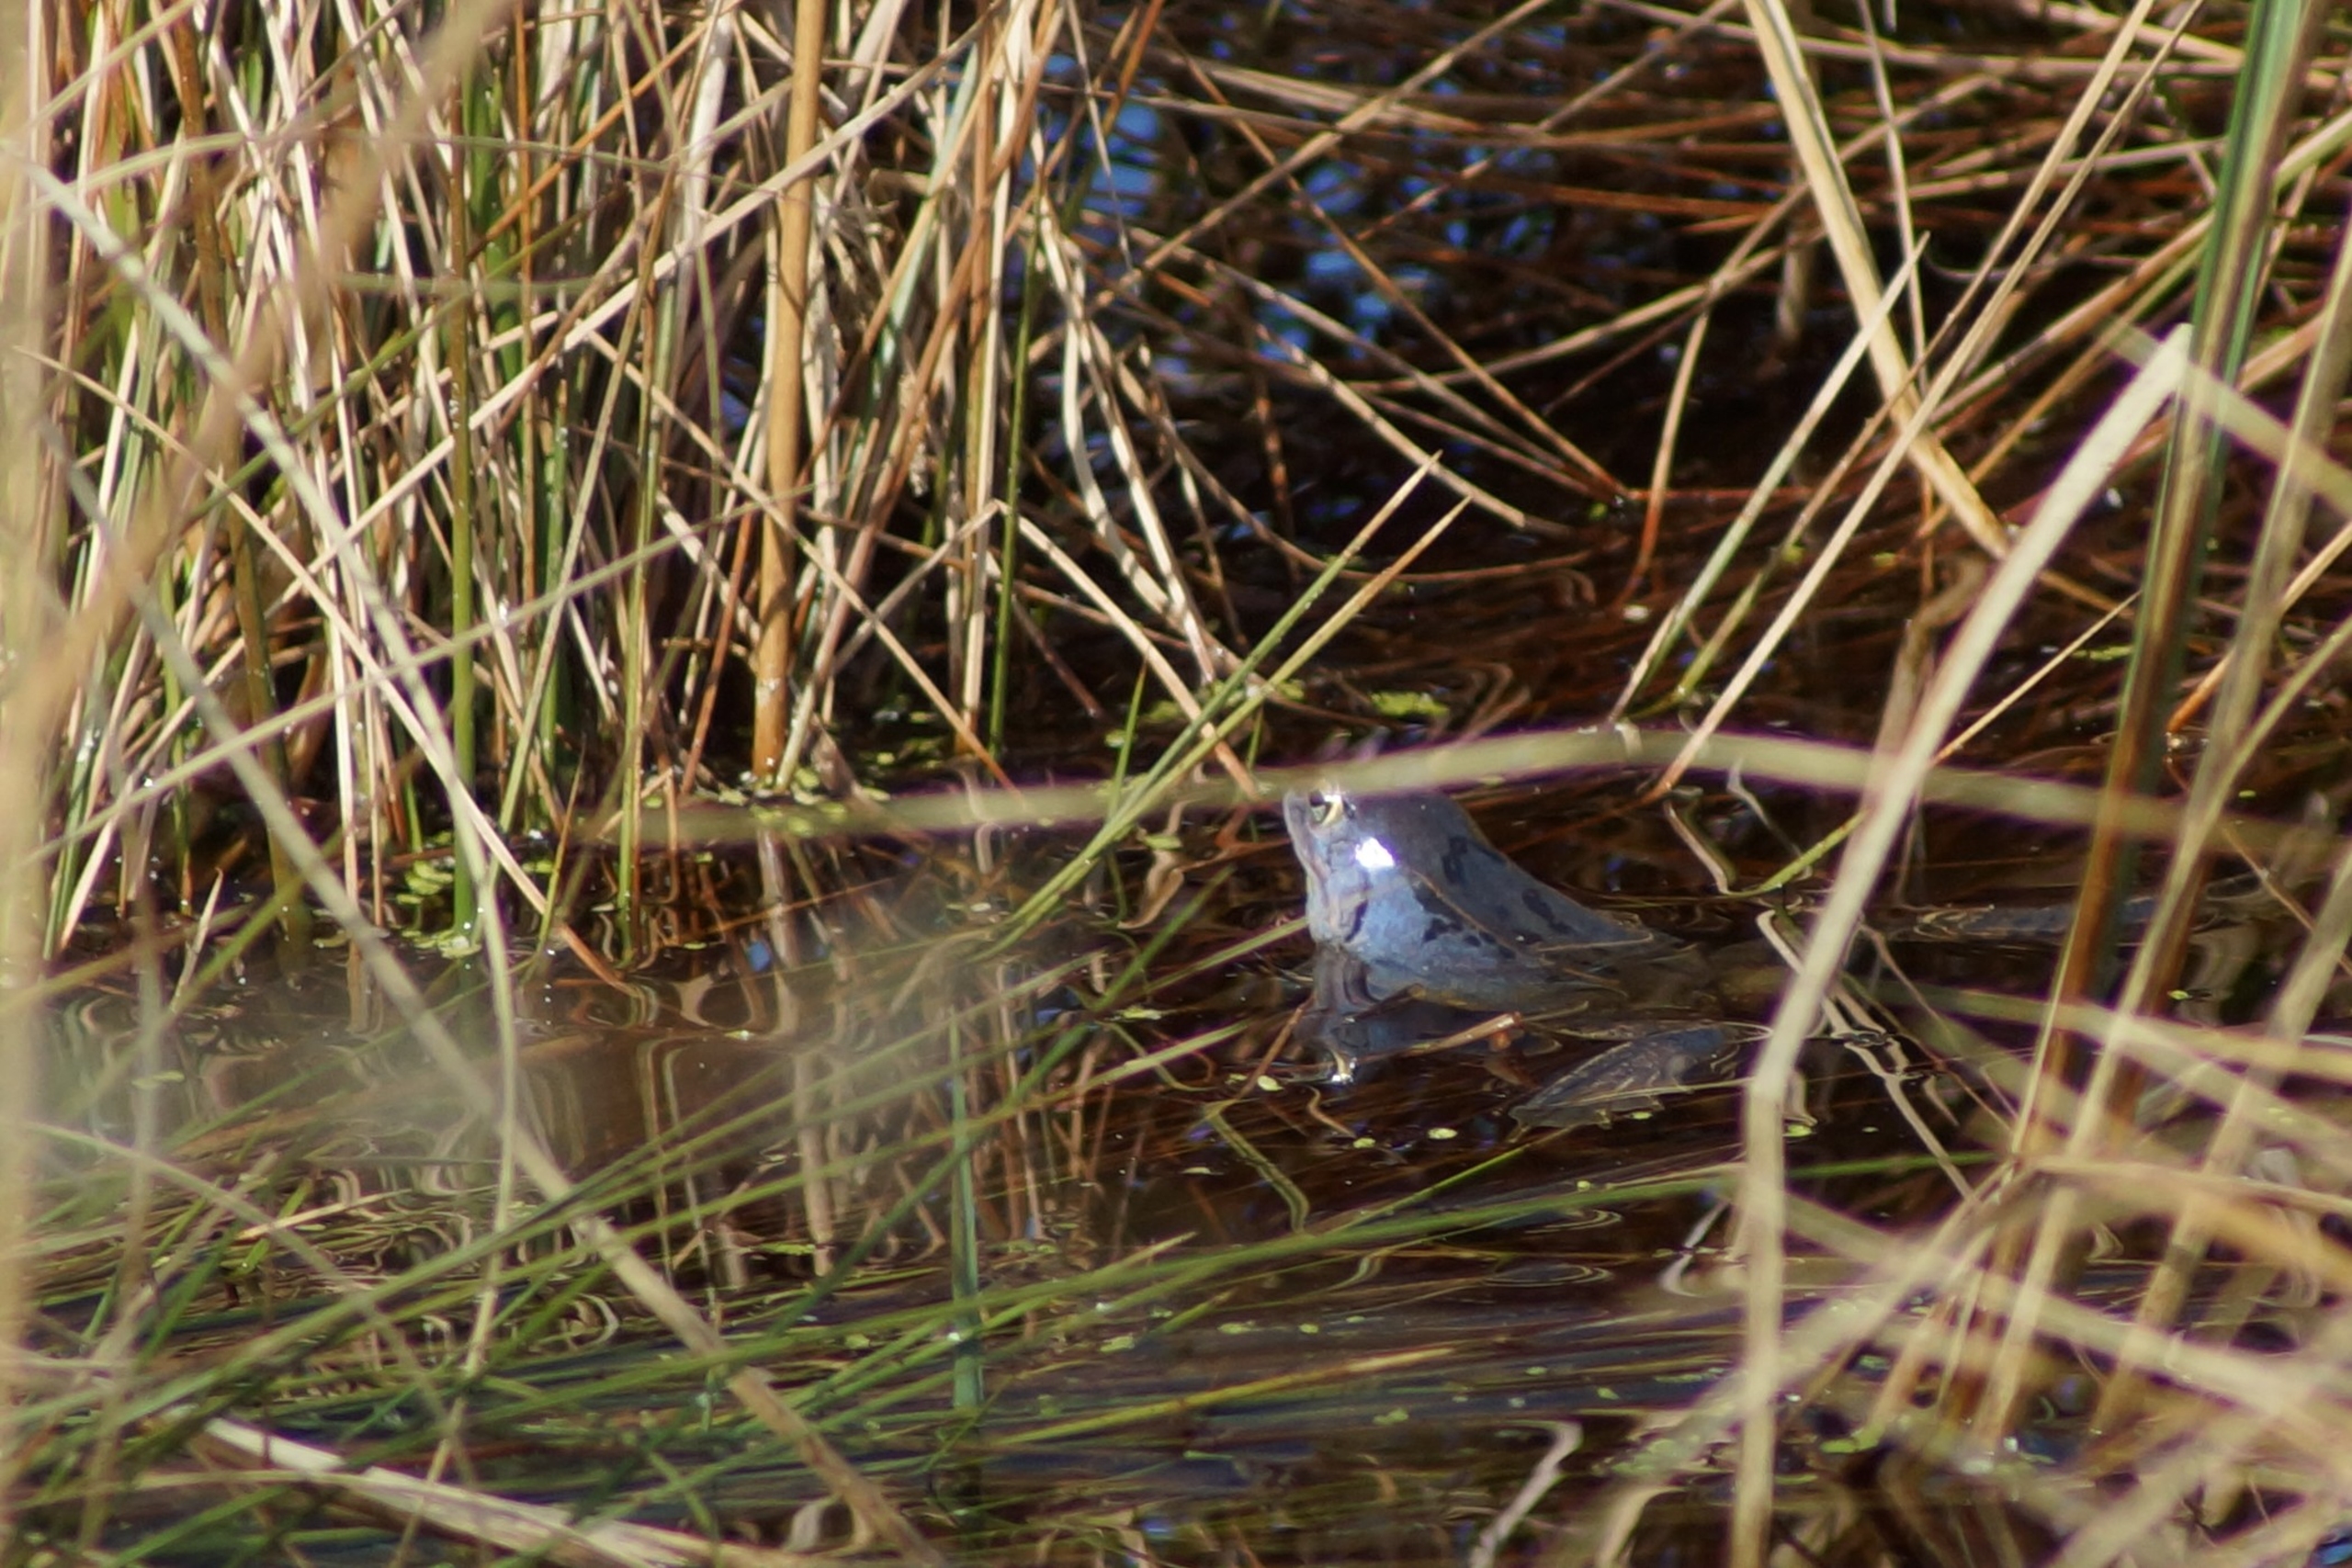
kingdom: Animalia
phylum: Chordata
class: Amphibia
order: Anura
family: Ranidae
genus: Rana
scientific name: Rana arvalis
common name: Spidssnudet frø
